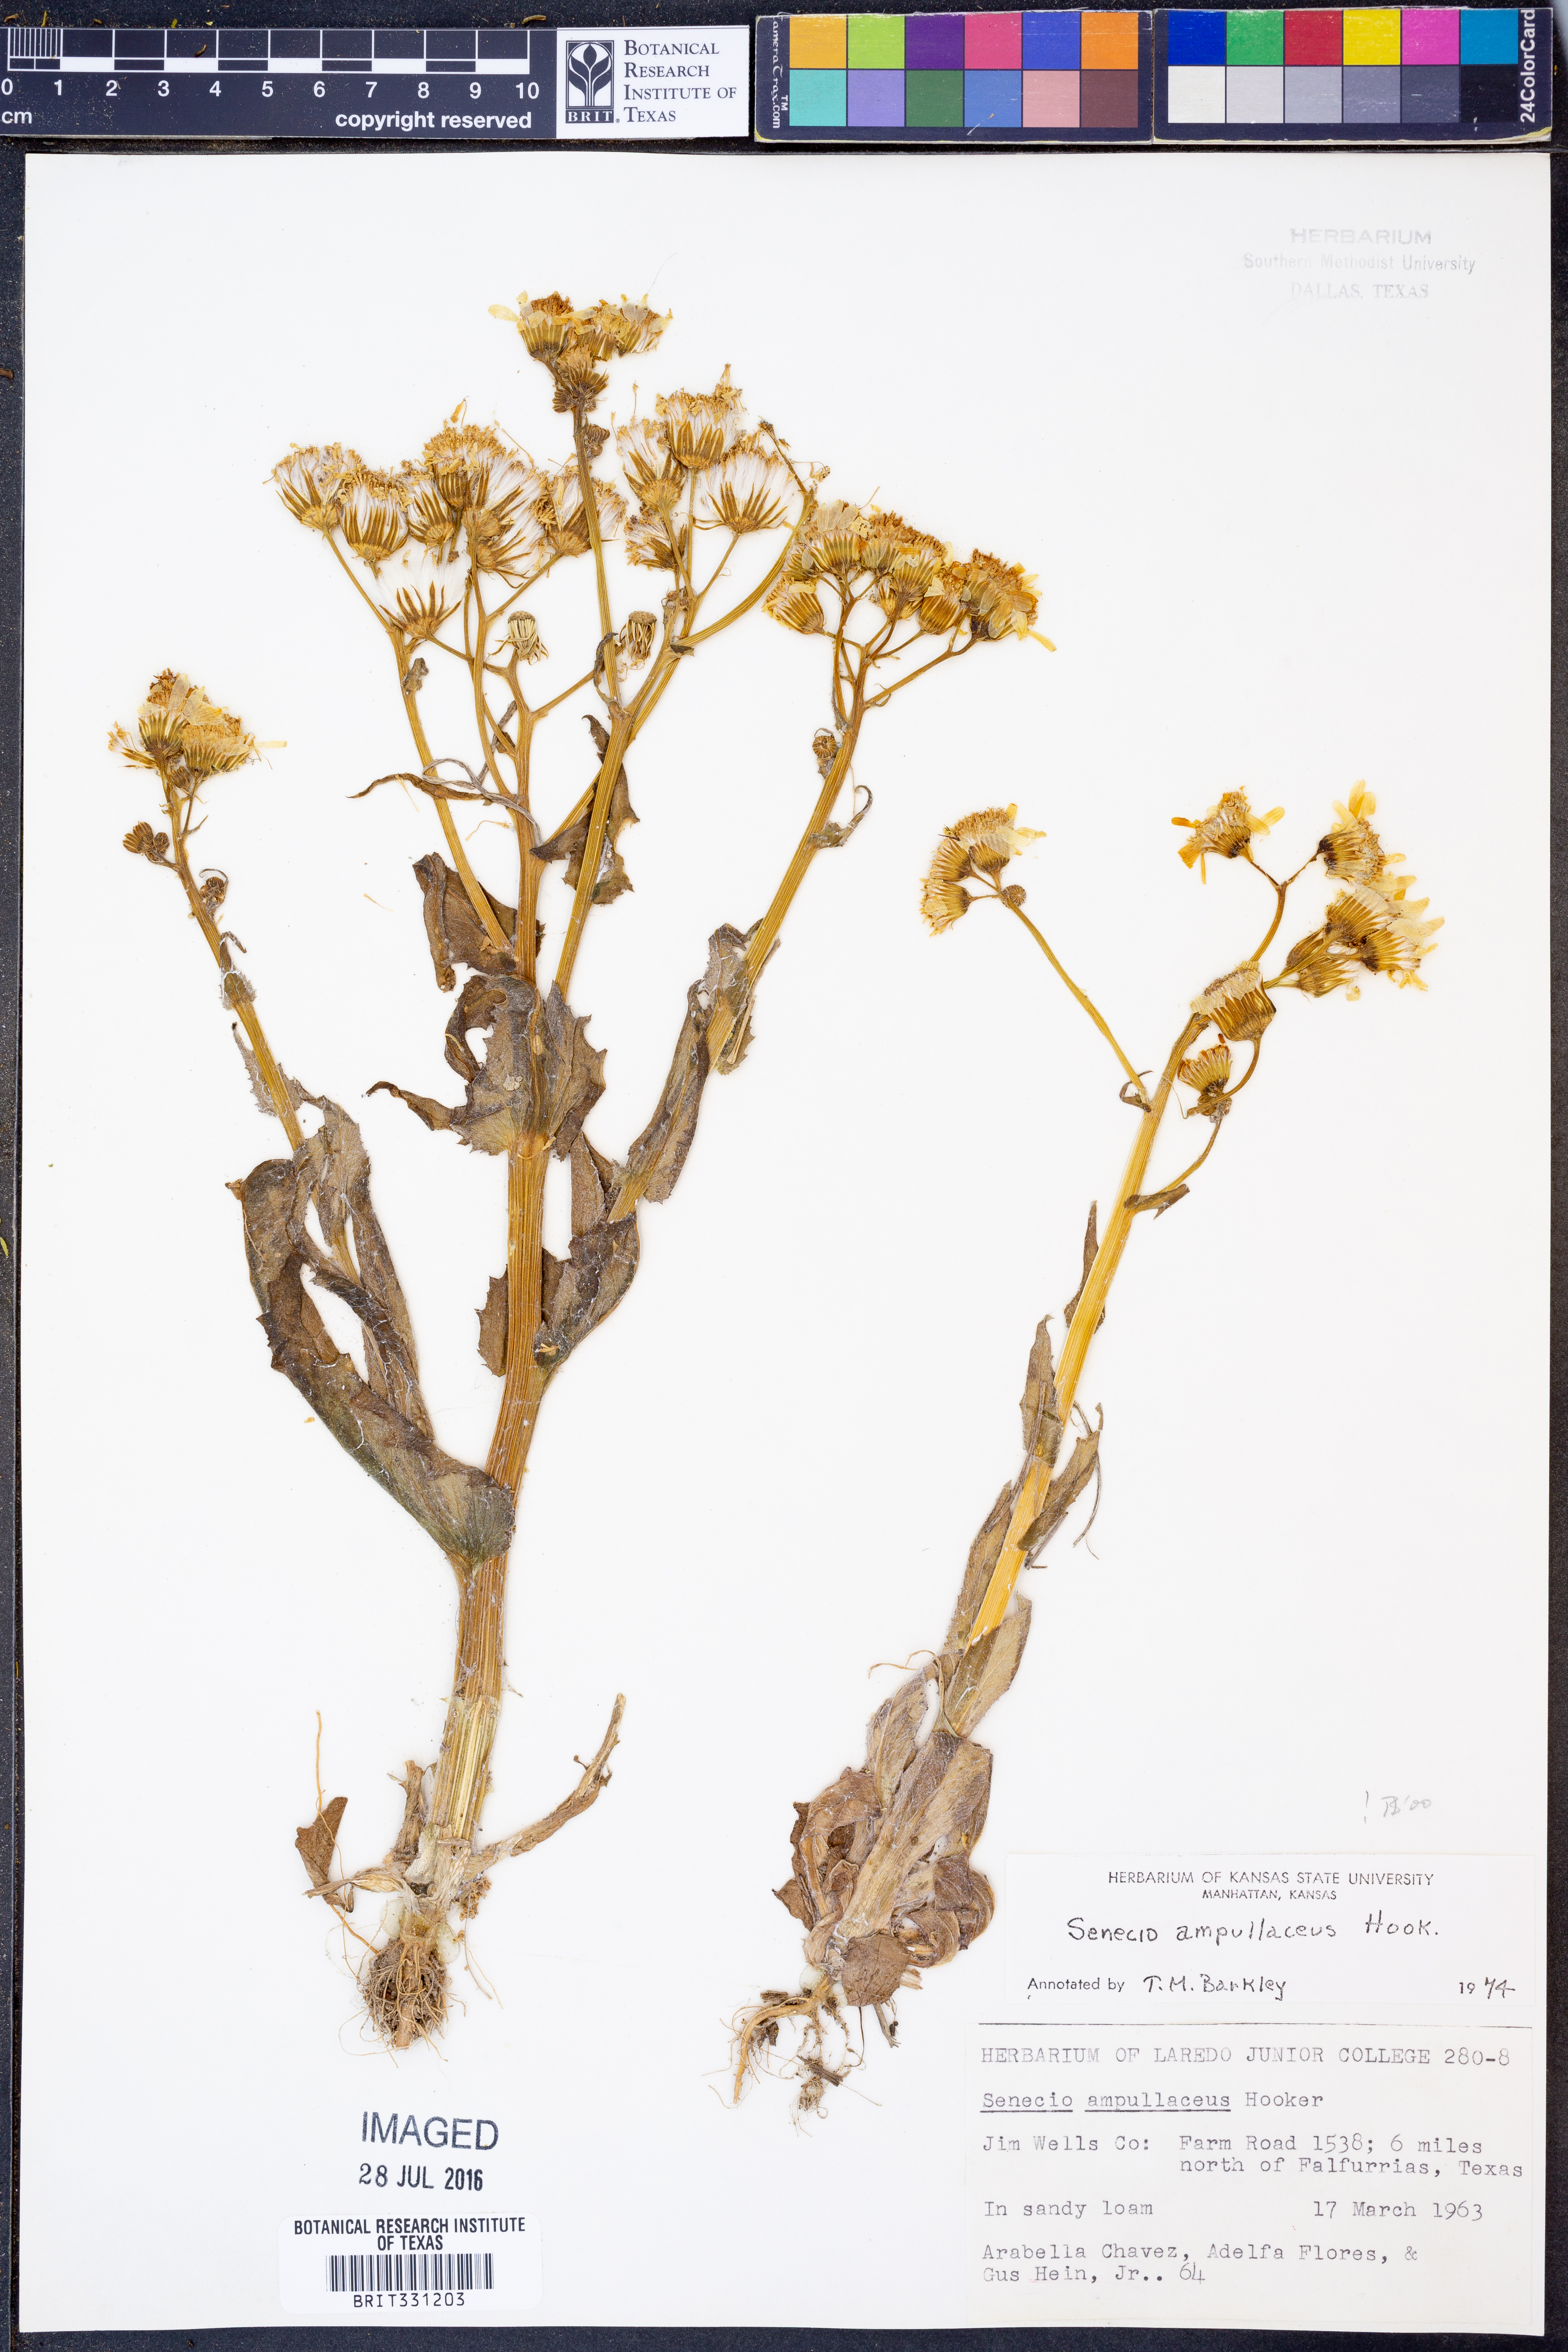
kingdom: Plantae
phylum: Tracheophyta
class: Magnoliopsida
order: Asterales
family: Asteraceae
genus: Senecio
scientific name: Senecio ampullaceus
